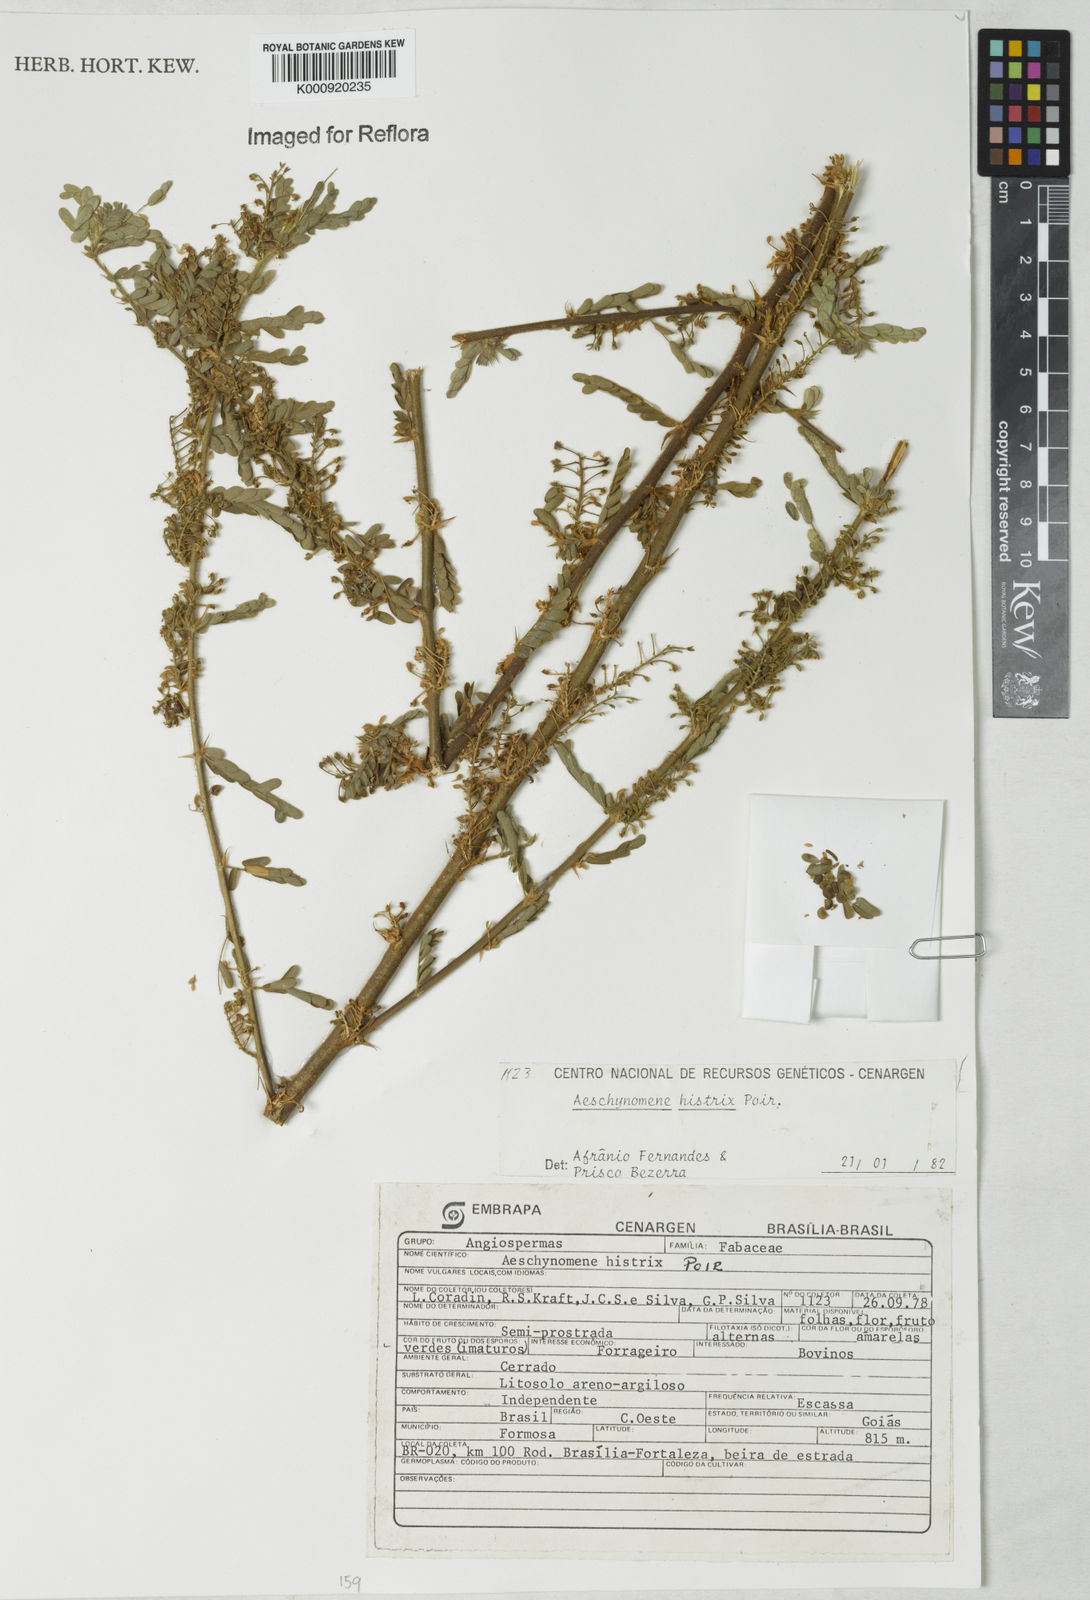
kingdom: Plantae
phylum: Tracheophyta
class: Magnoliopsida
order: Fabales
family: Fabaceae
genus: Ctenodon
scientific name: Ctenodon histrix
